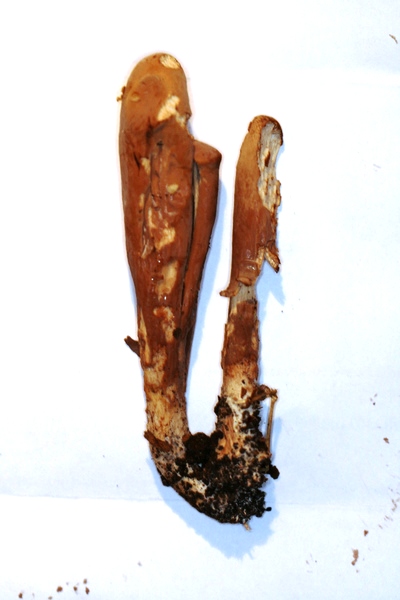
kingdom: Fungi
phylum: Basidiomycota
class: Agaricomycetes
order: Gomphales
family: Clavariadelphaceae
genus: Clavariadelphus
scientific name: Clavariadelphus pistillaris
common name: herkules-kæmpekølle
